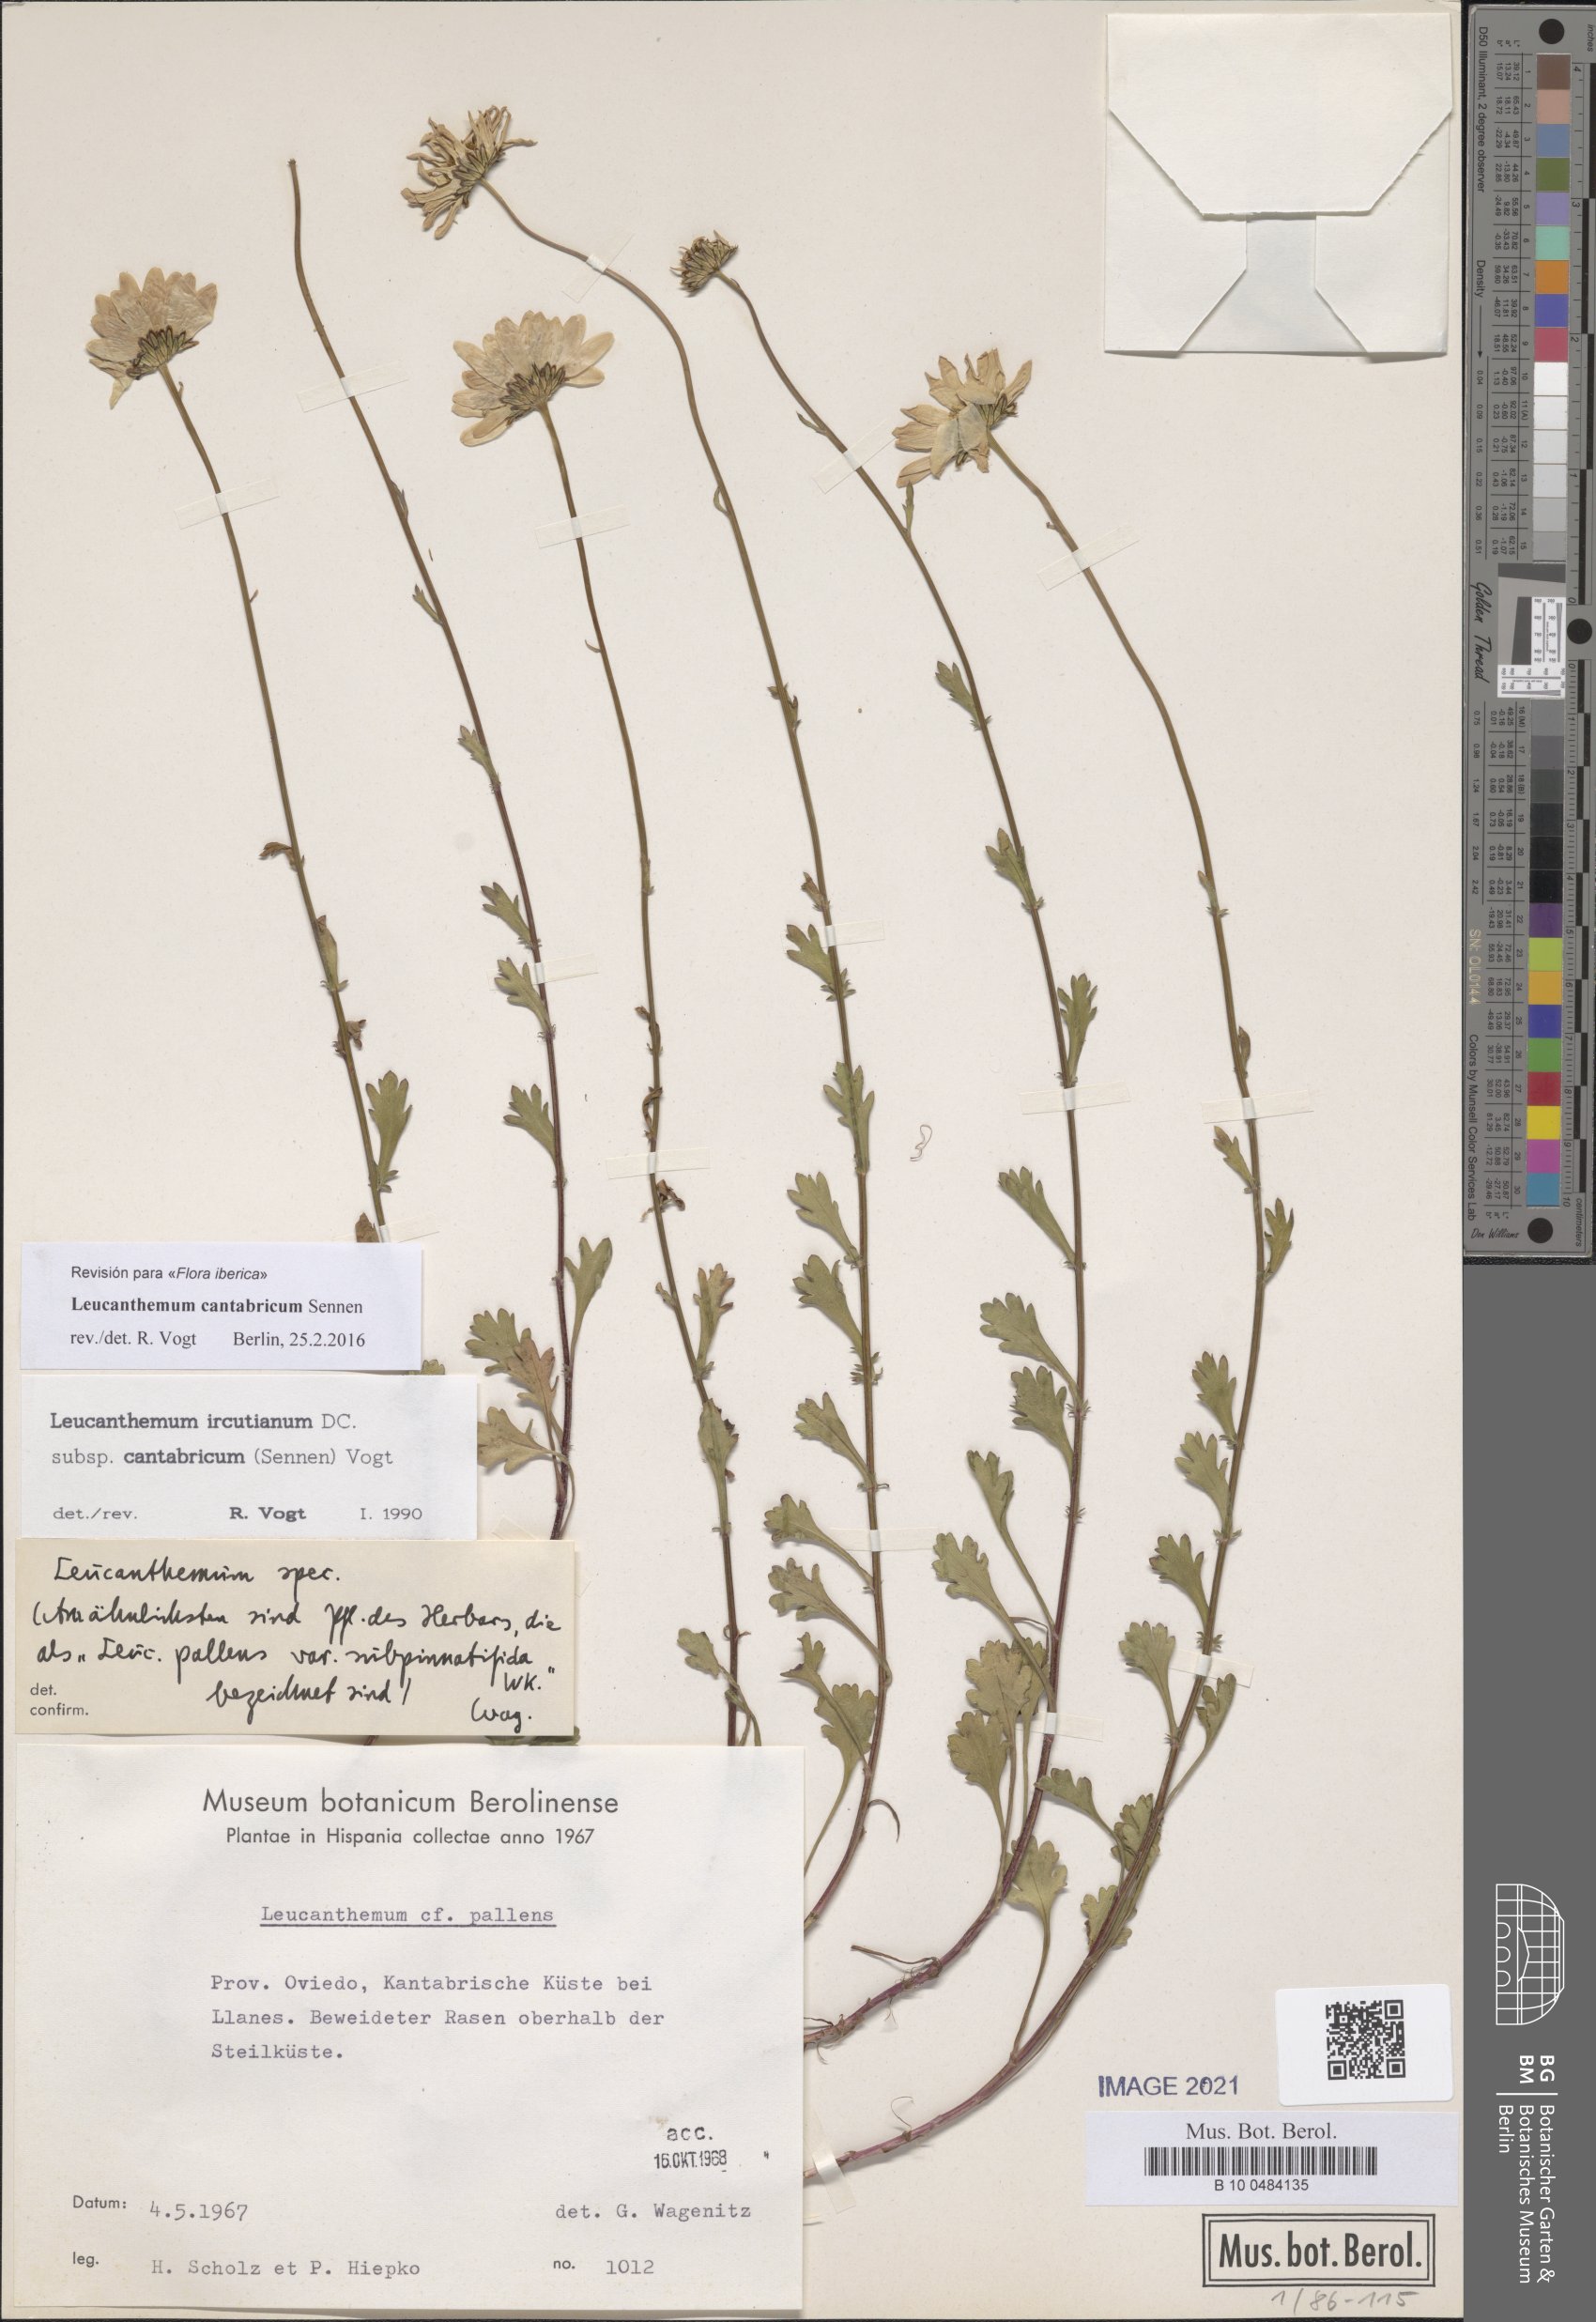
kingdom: Plantae
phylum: Tracheophyta
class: Magnoliopsida
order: Asterales
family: Asteraceae
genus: Leucanthemum
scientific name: Leucanthemum cantabricum
